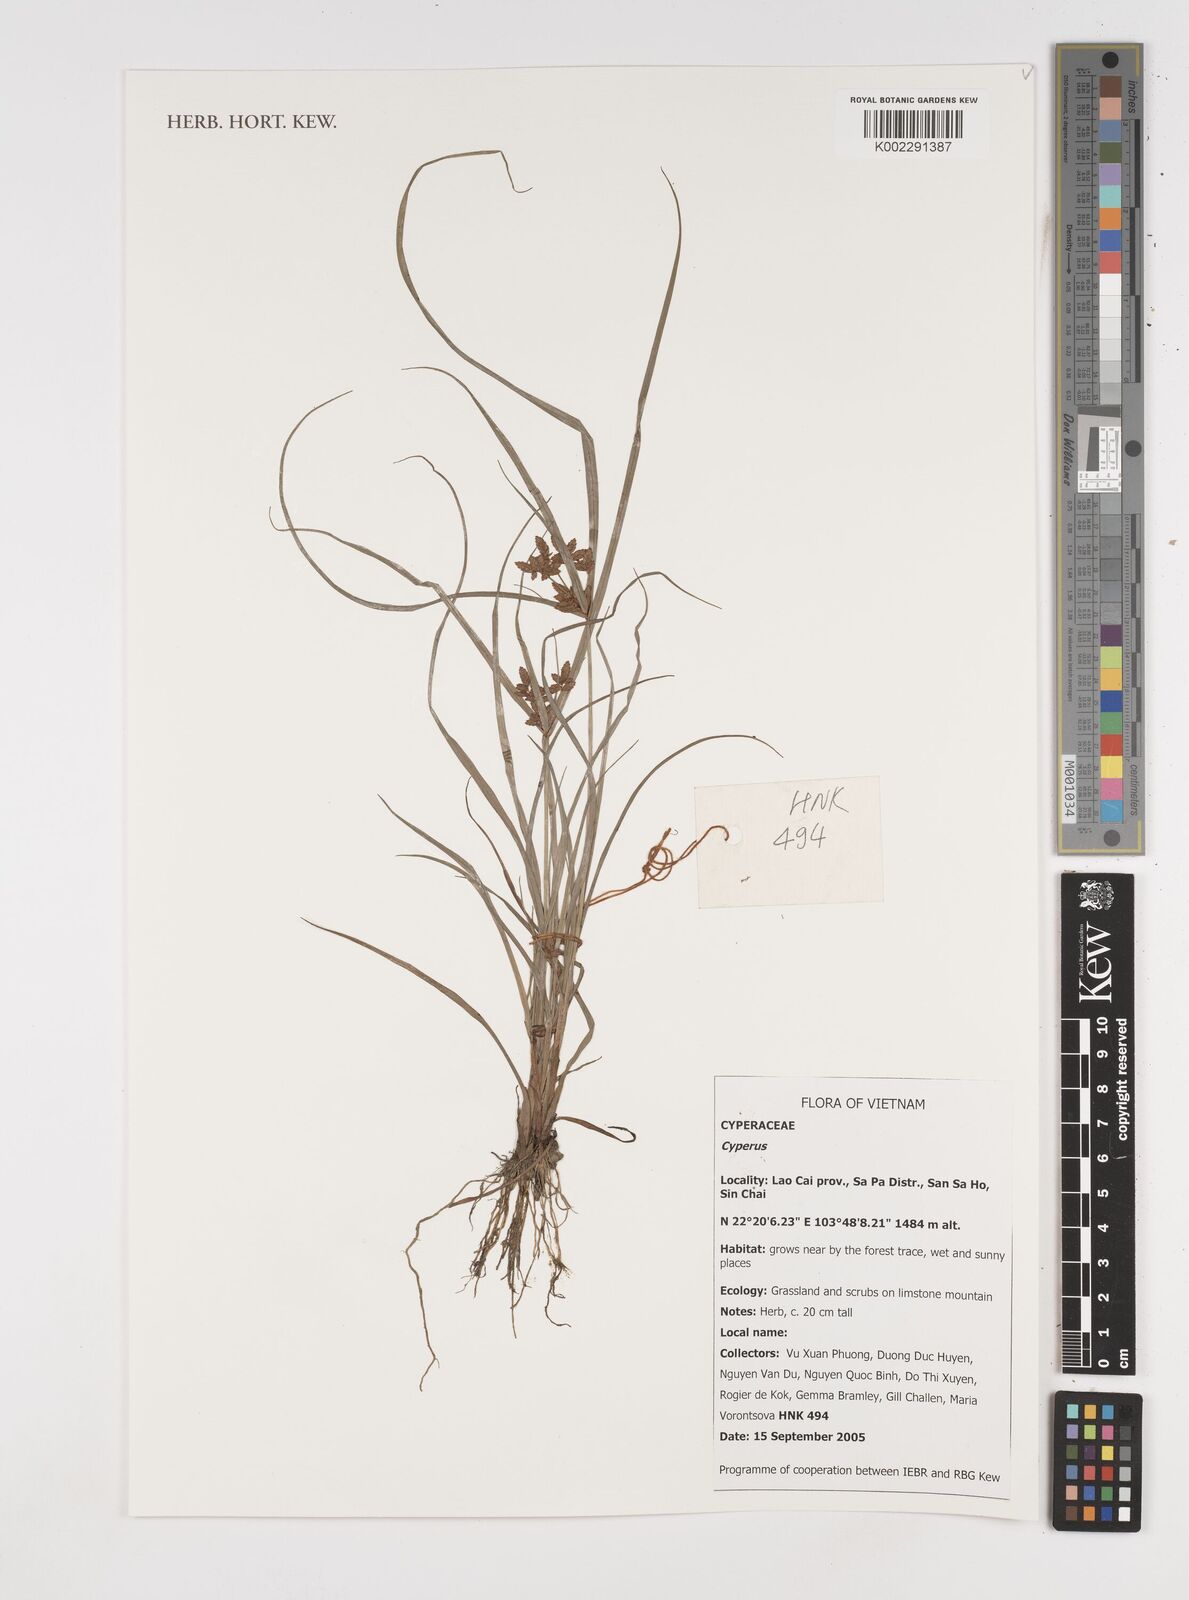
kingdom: Plantae
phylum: Tracheophyta
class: Liliopsida
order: Poales
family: Cyperaceae
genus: Cyperus
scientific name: Cyperus
